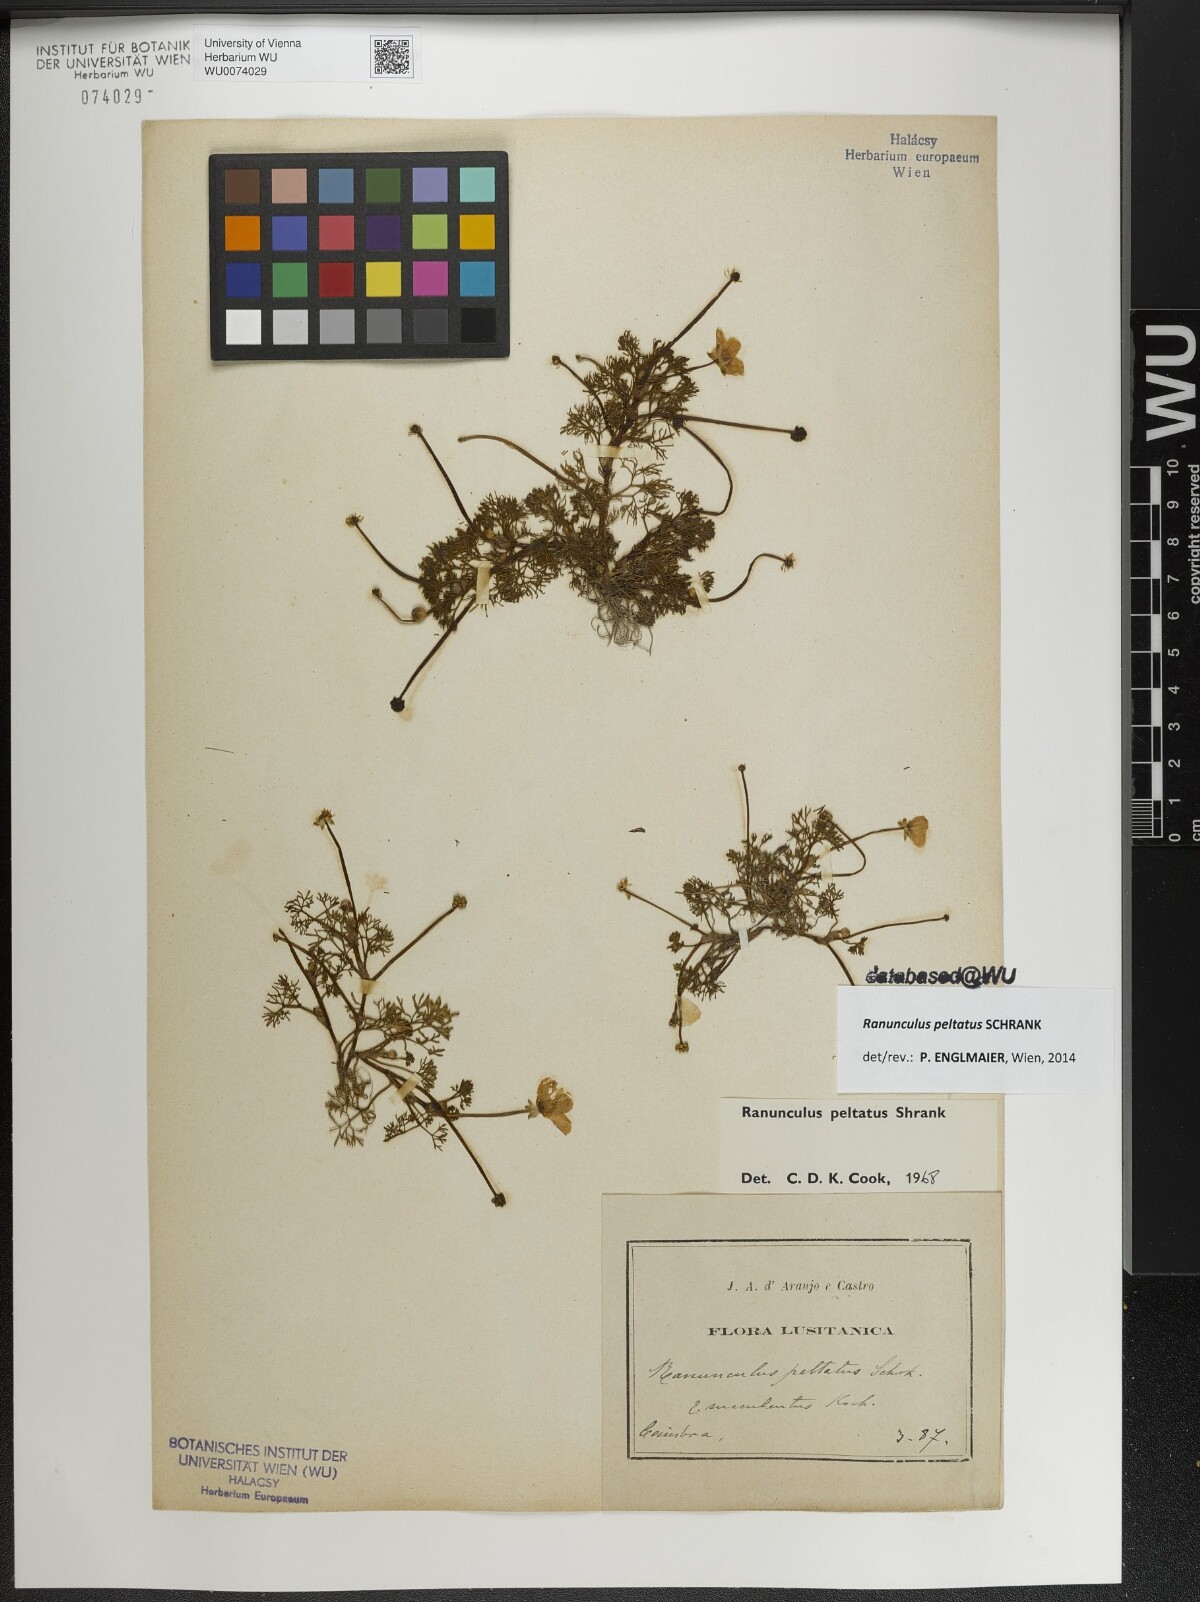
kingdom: Plantae
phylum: Tracheophyta
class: Magnoliopsida
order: Ranunculales
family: Ranunculaceae
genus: Ranunculus
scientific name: Ranunculus peltatus
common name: Pond water-crowfoot
